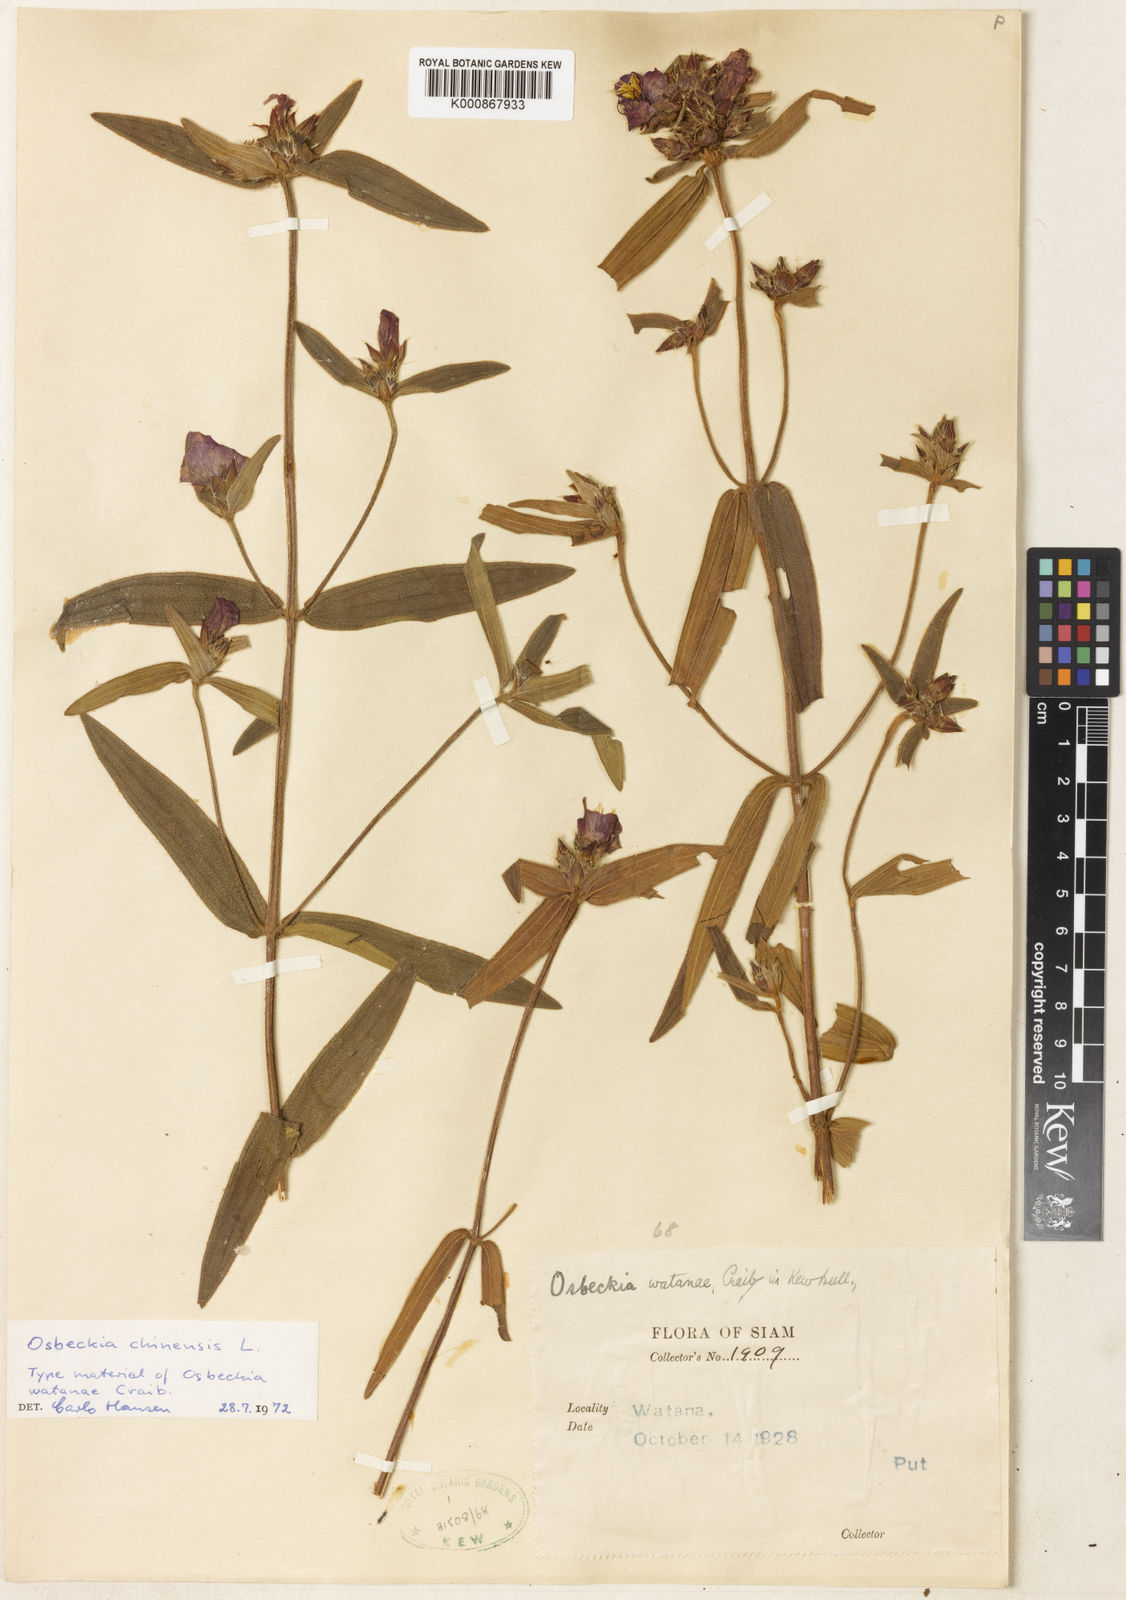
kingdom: Plantae
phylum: Tracheophyta
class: Magnoliopsida
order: Myrtales
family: Melastomataceae
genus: Osbeckia
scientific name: Osbeckia chinensis
